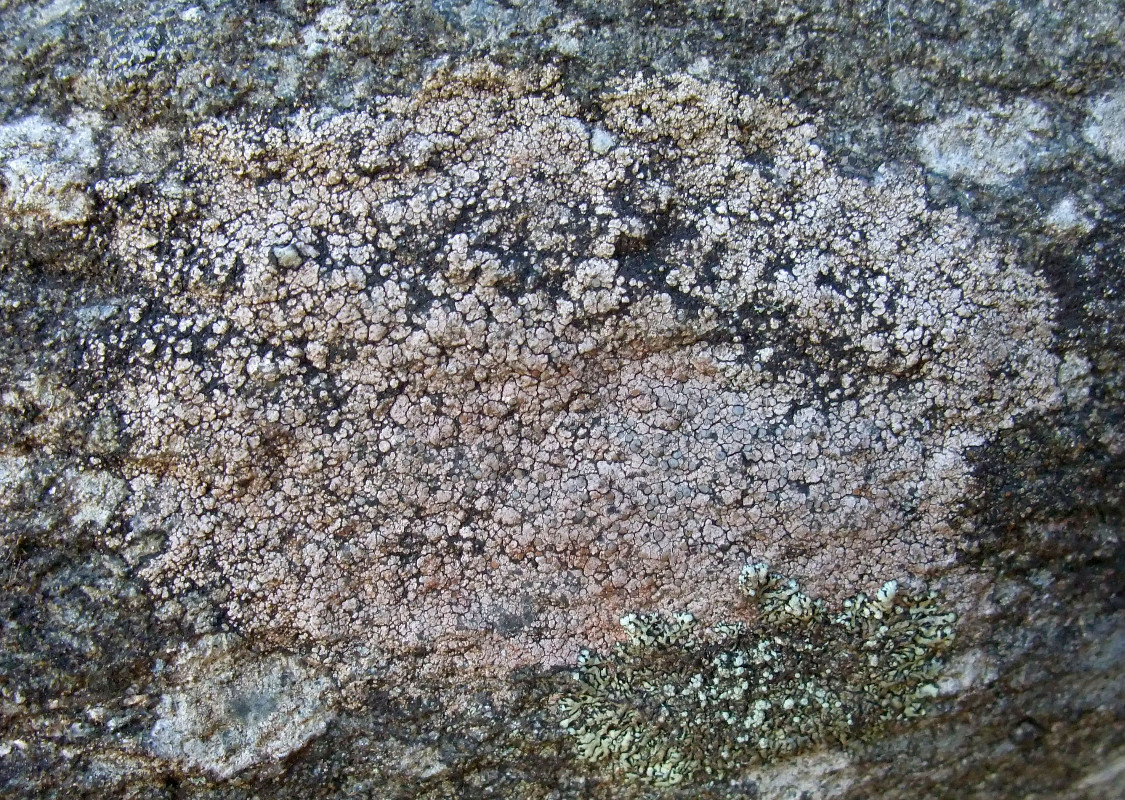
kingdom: Fungi
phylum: Ascomycota
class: Lecanoromycetes
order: Lecideales
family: Lecideaceae
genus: Lecidea
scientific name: Lecidea grisella
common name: grå skivelav
